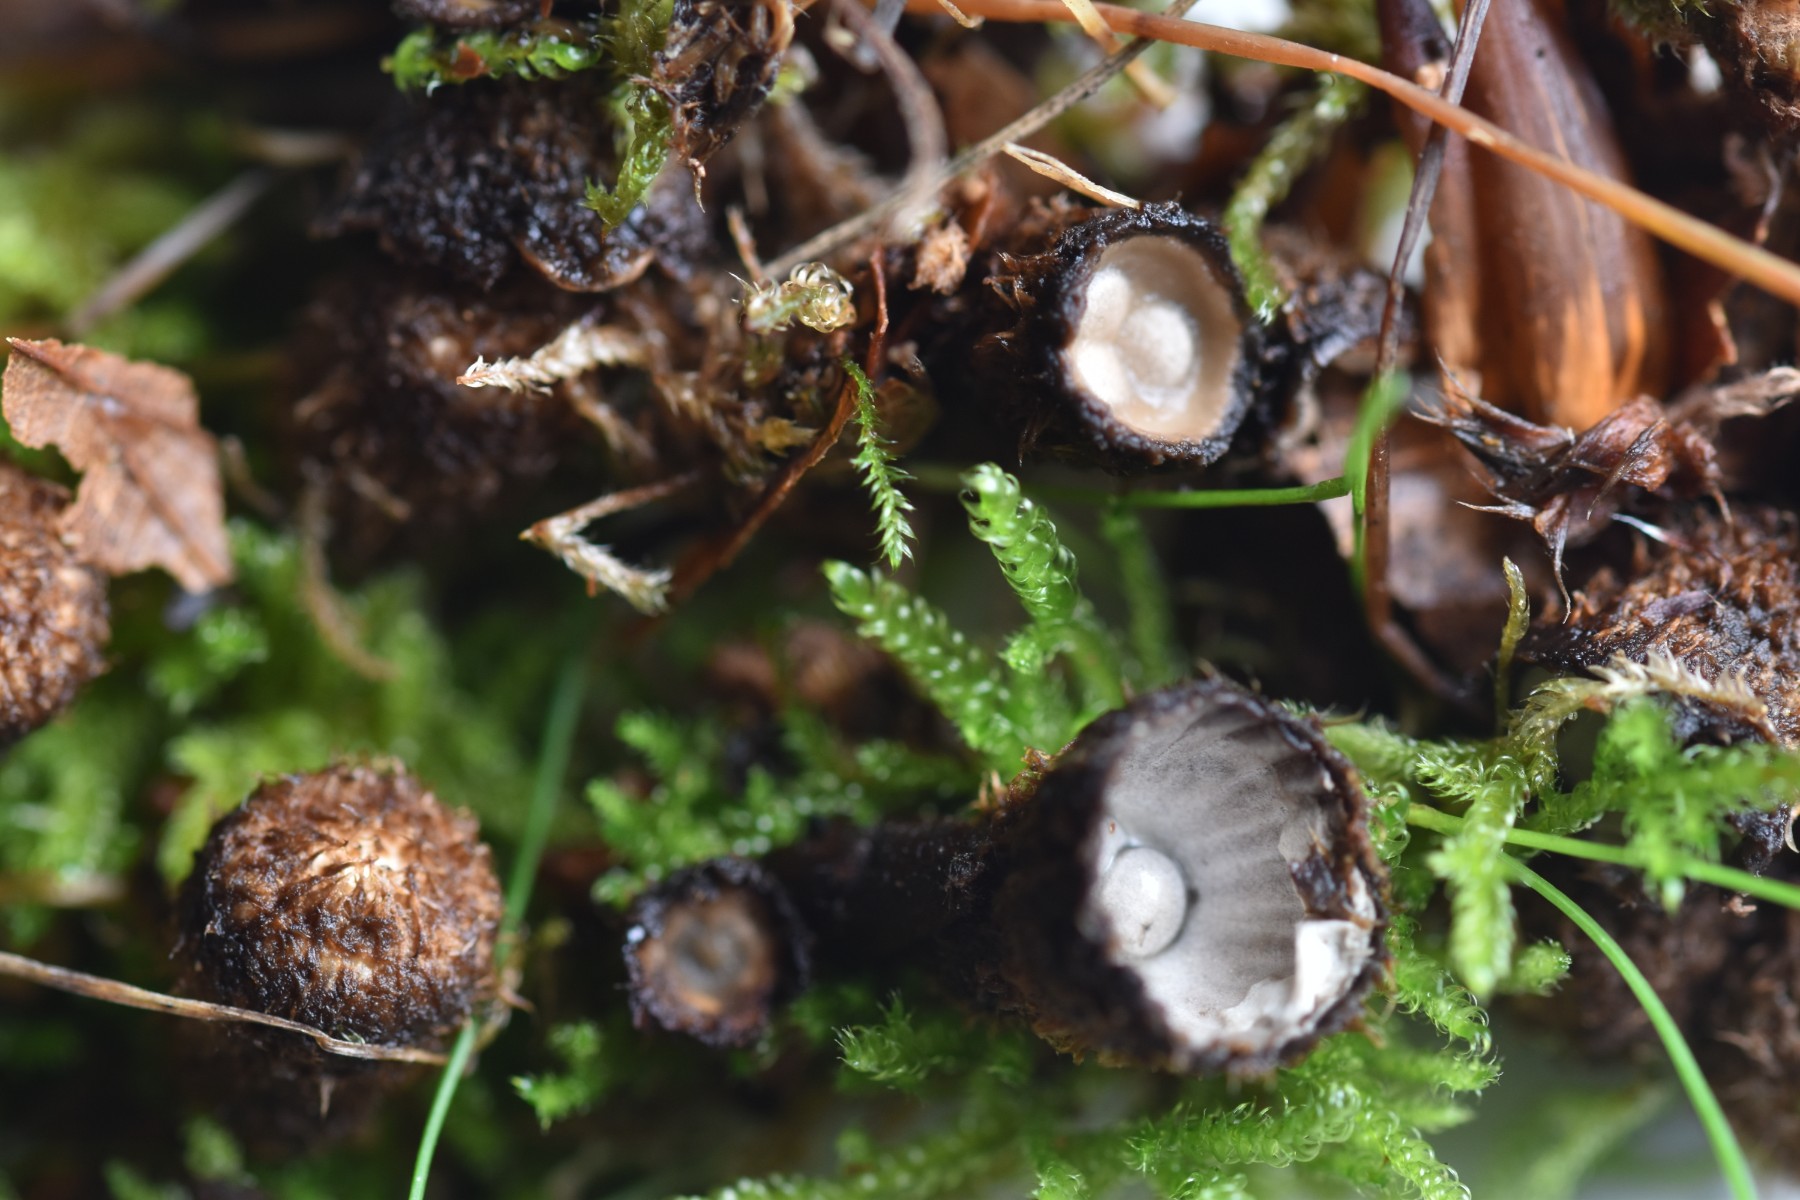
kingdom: Fungi
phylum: Basidiomycota
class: Agaricomycetes
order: Agaricales
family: Agaricaceae
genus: Cyathus
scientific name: Cyathus striatus
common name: stribet redesvamp
